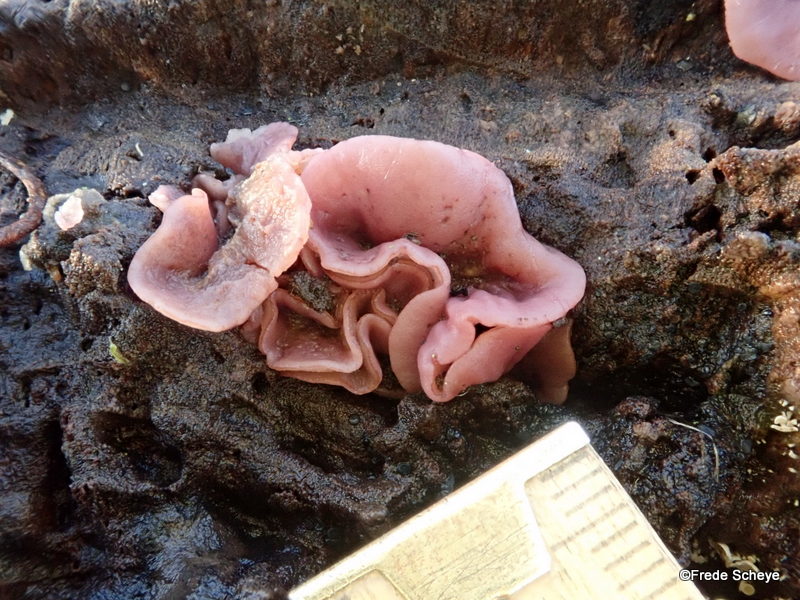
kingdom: Fungi
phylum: Ascomycota
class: Leotiomycetes
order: Helotiales
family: Gelatinodiscaceae
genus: Ascocoryne
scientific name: Ascocoryne cylichnium
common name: stor sejskive
